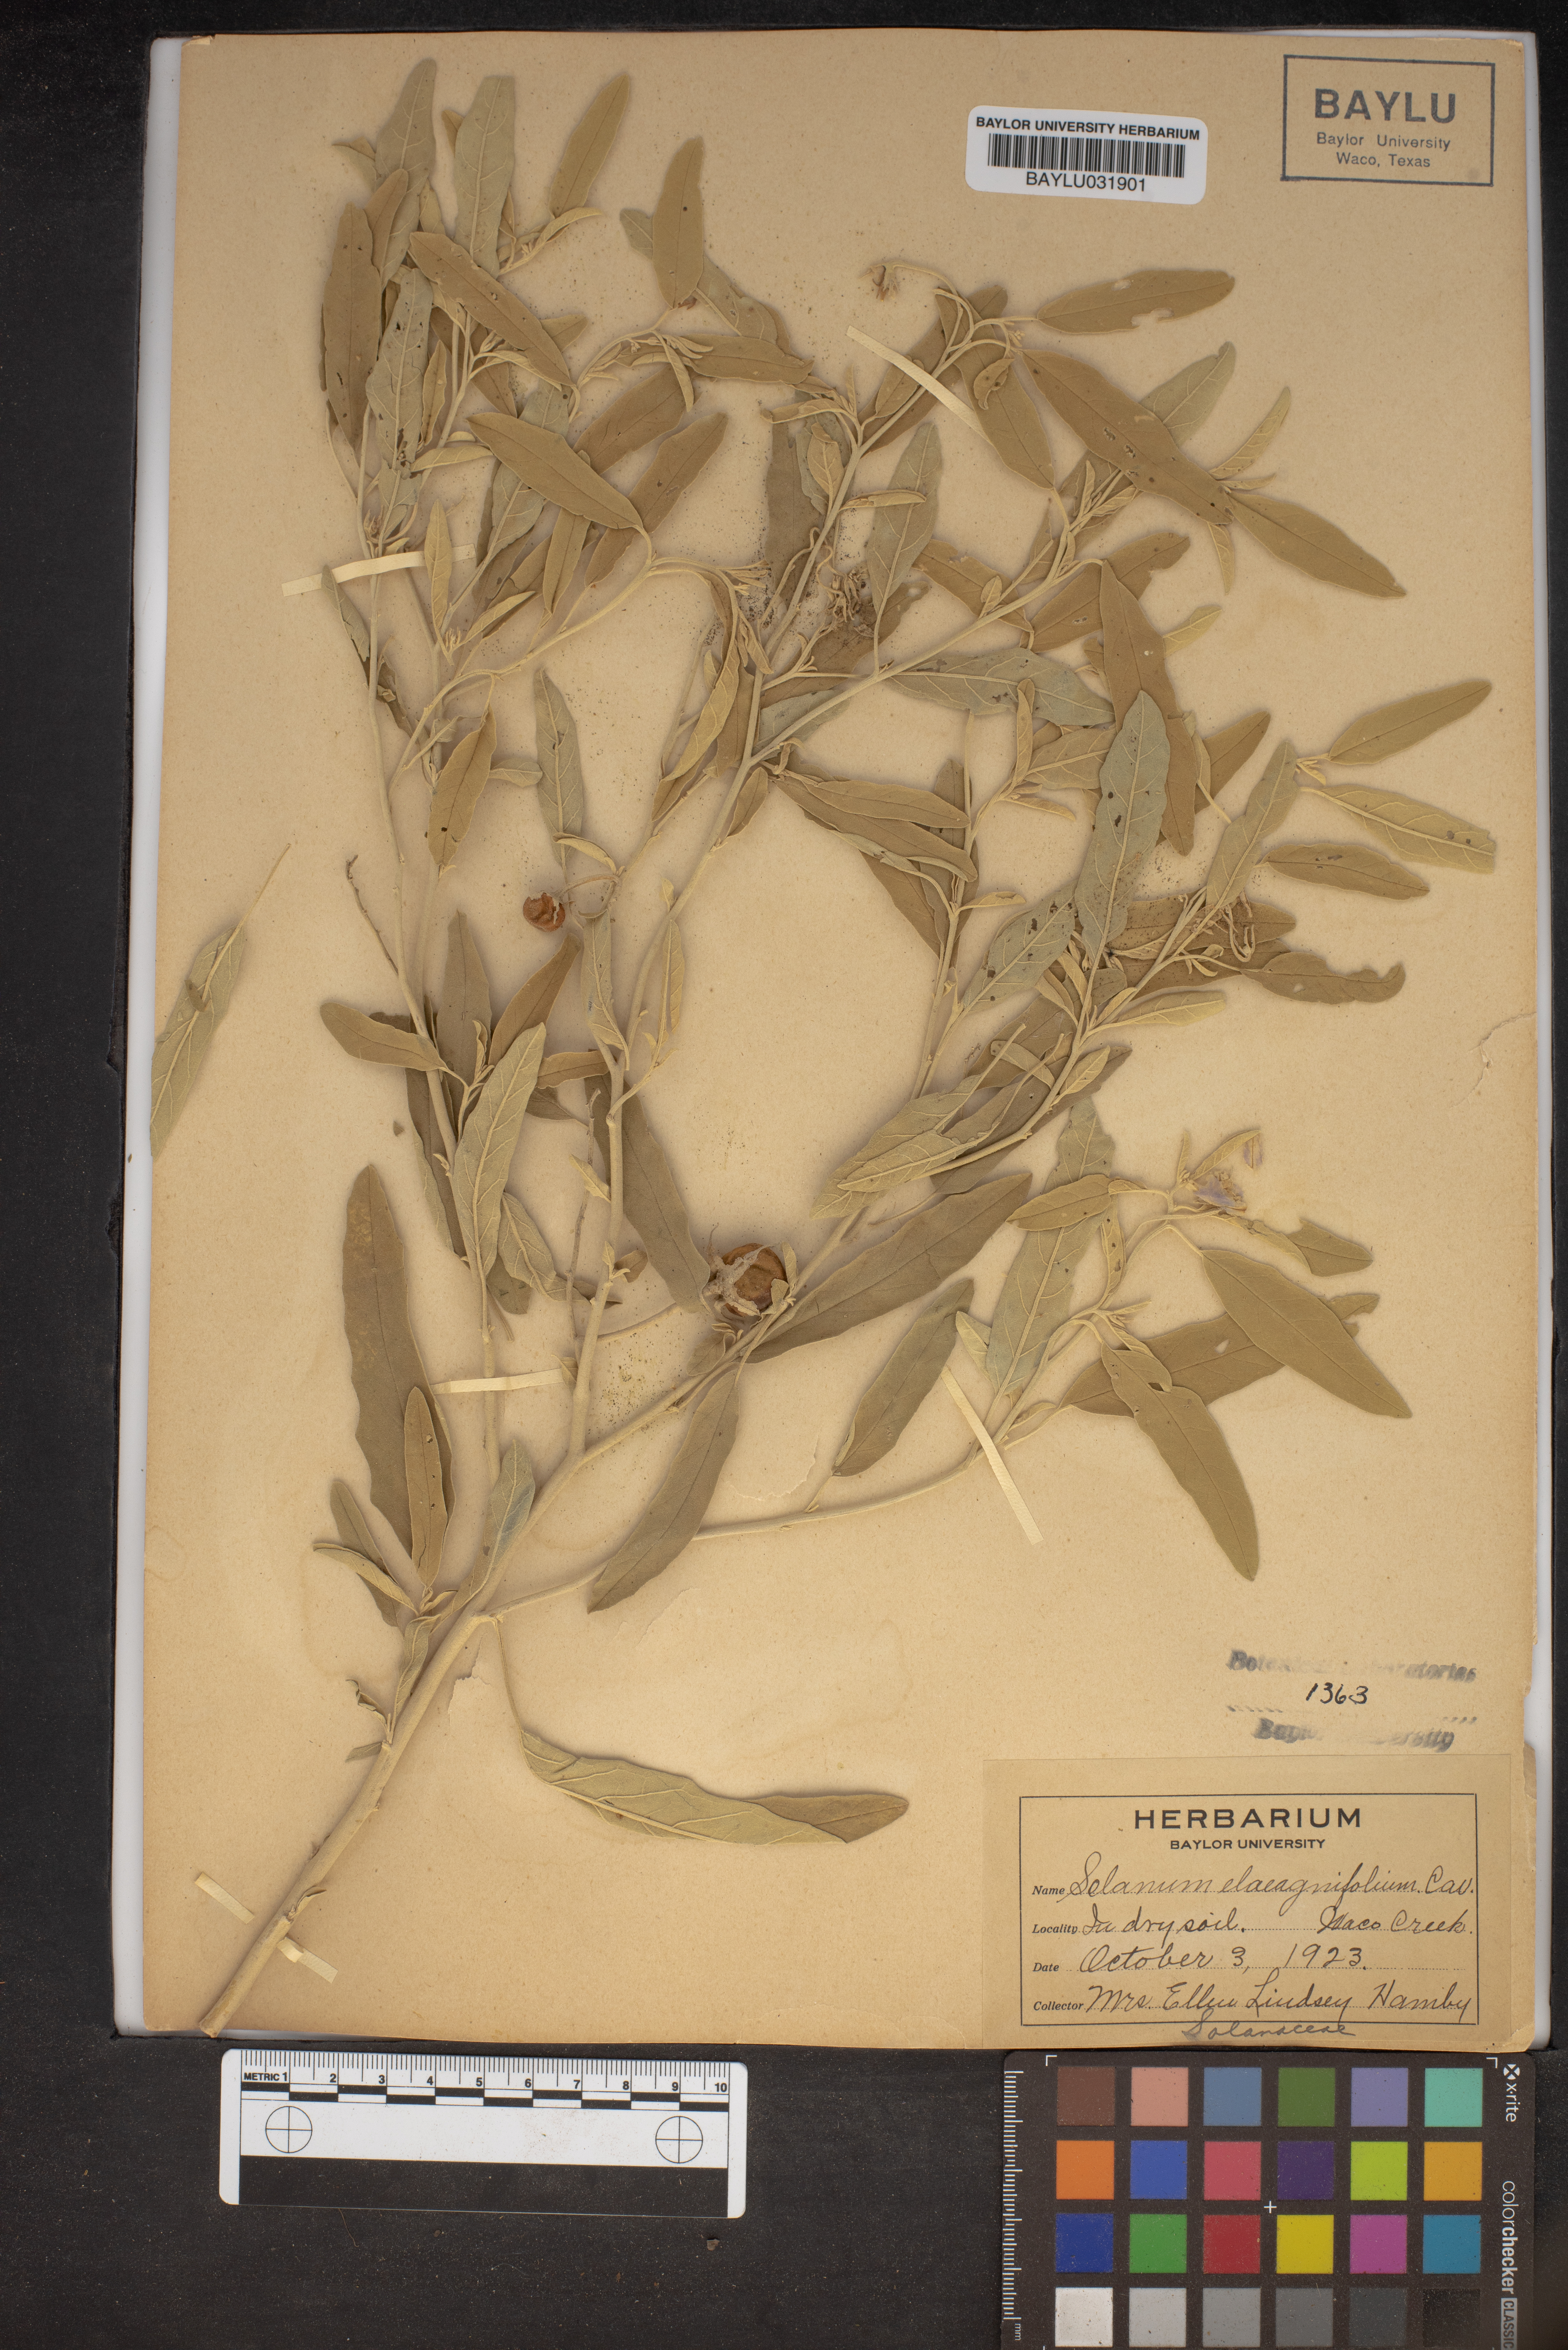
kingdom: Plantae
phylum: Tracheophyta
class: Magnoliopsida
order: Solanales
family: Solanaceae
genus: Solanum
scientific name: Solanum elaeagnifolium
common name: Silverleaf nightshade
